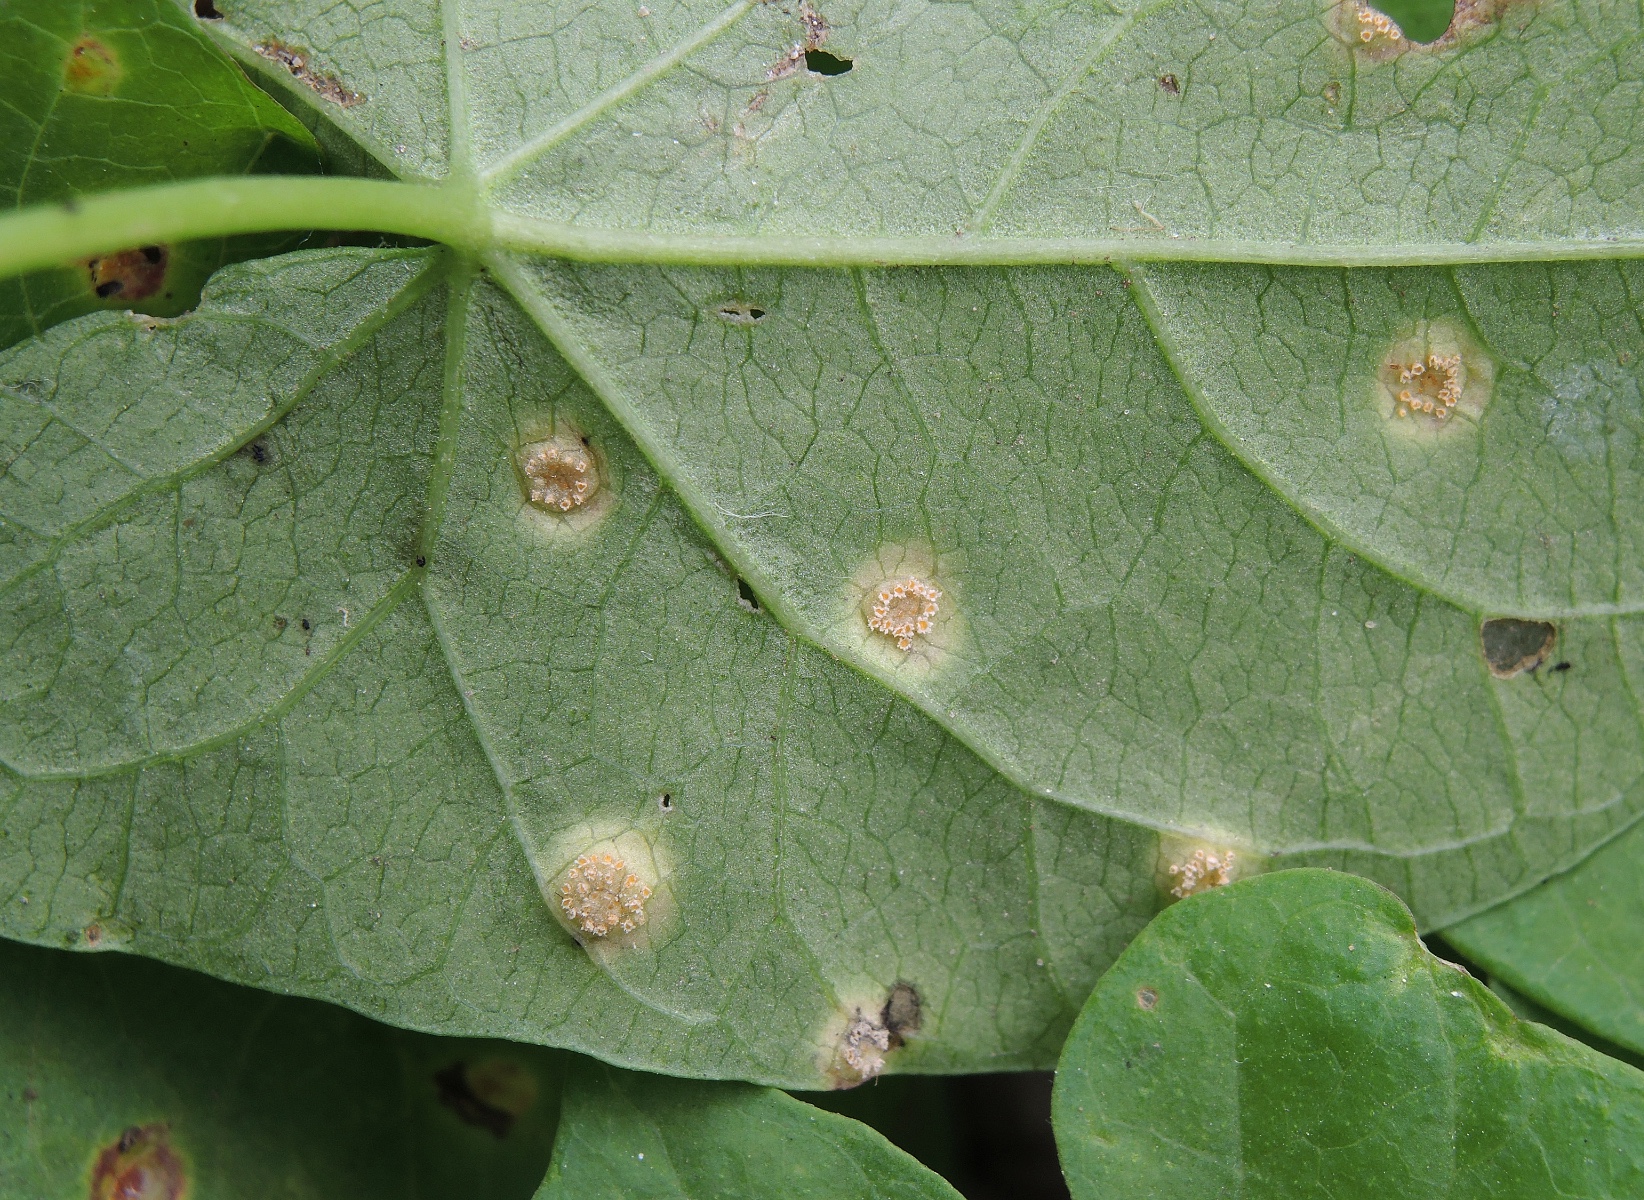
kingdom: Fungi
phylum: Basidiomycota
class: Pucciniomycetes
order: Pucciniales
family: Pucciniaceae
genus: Puccinia
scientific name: Puccinia convolvuli
